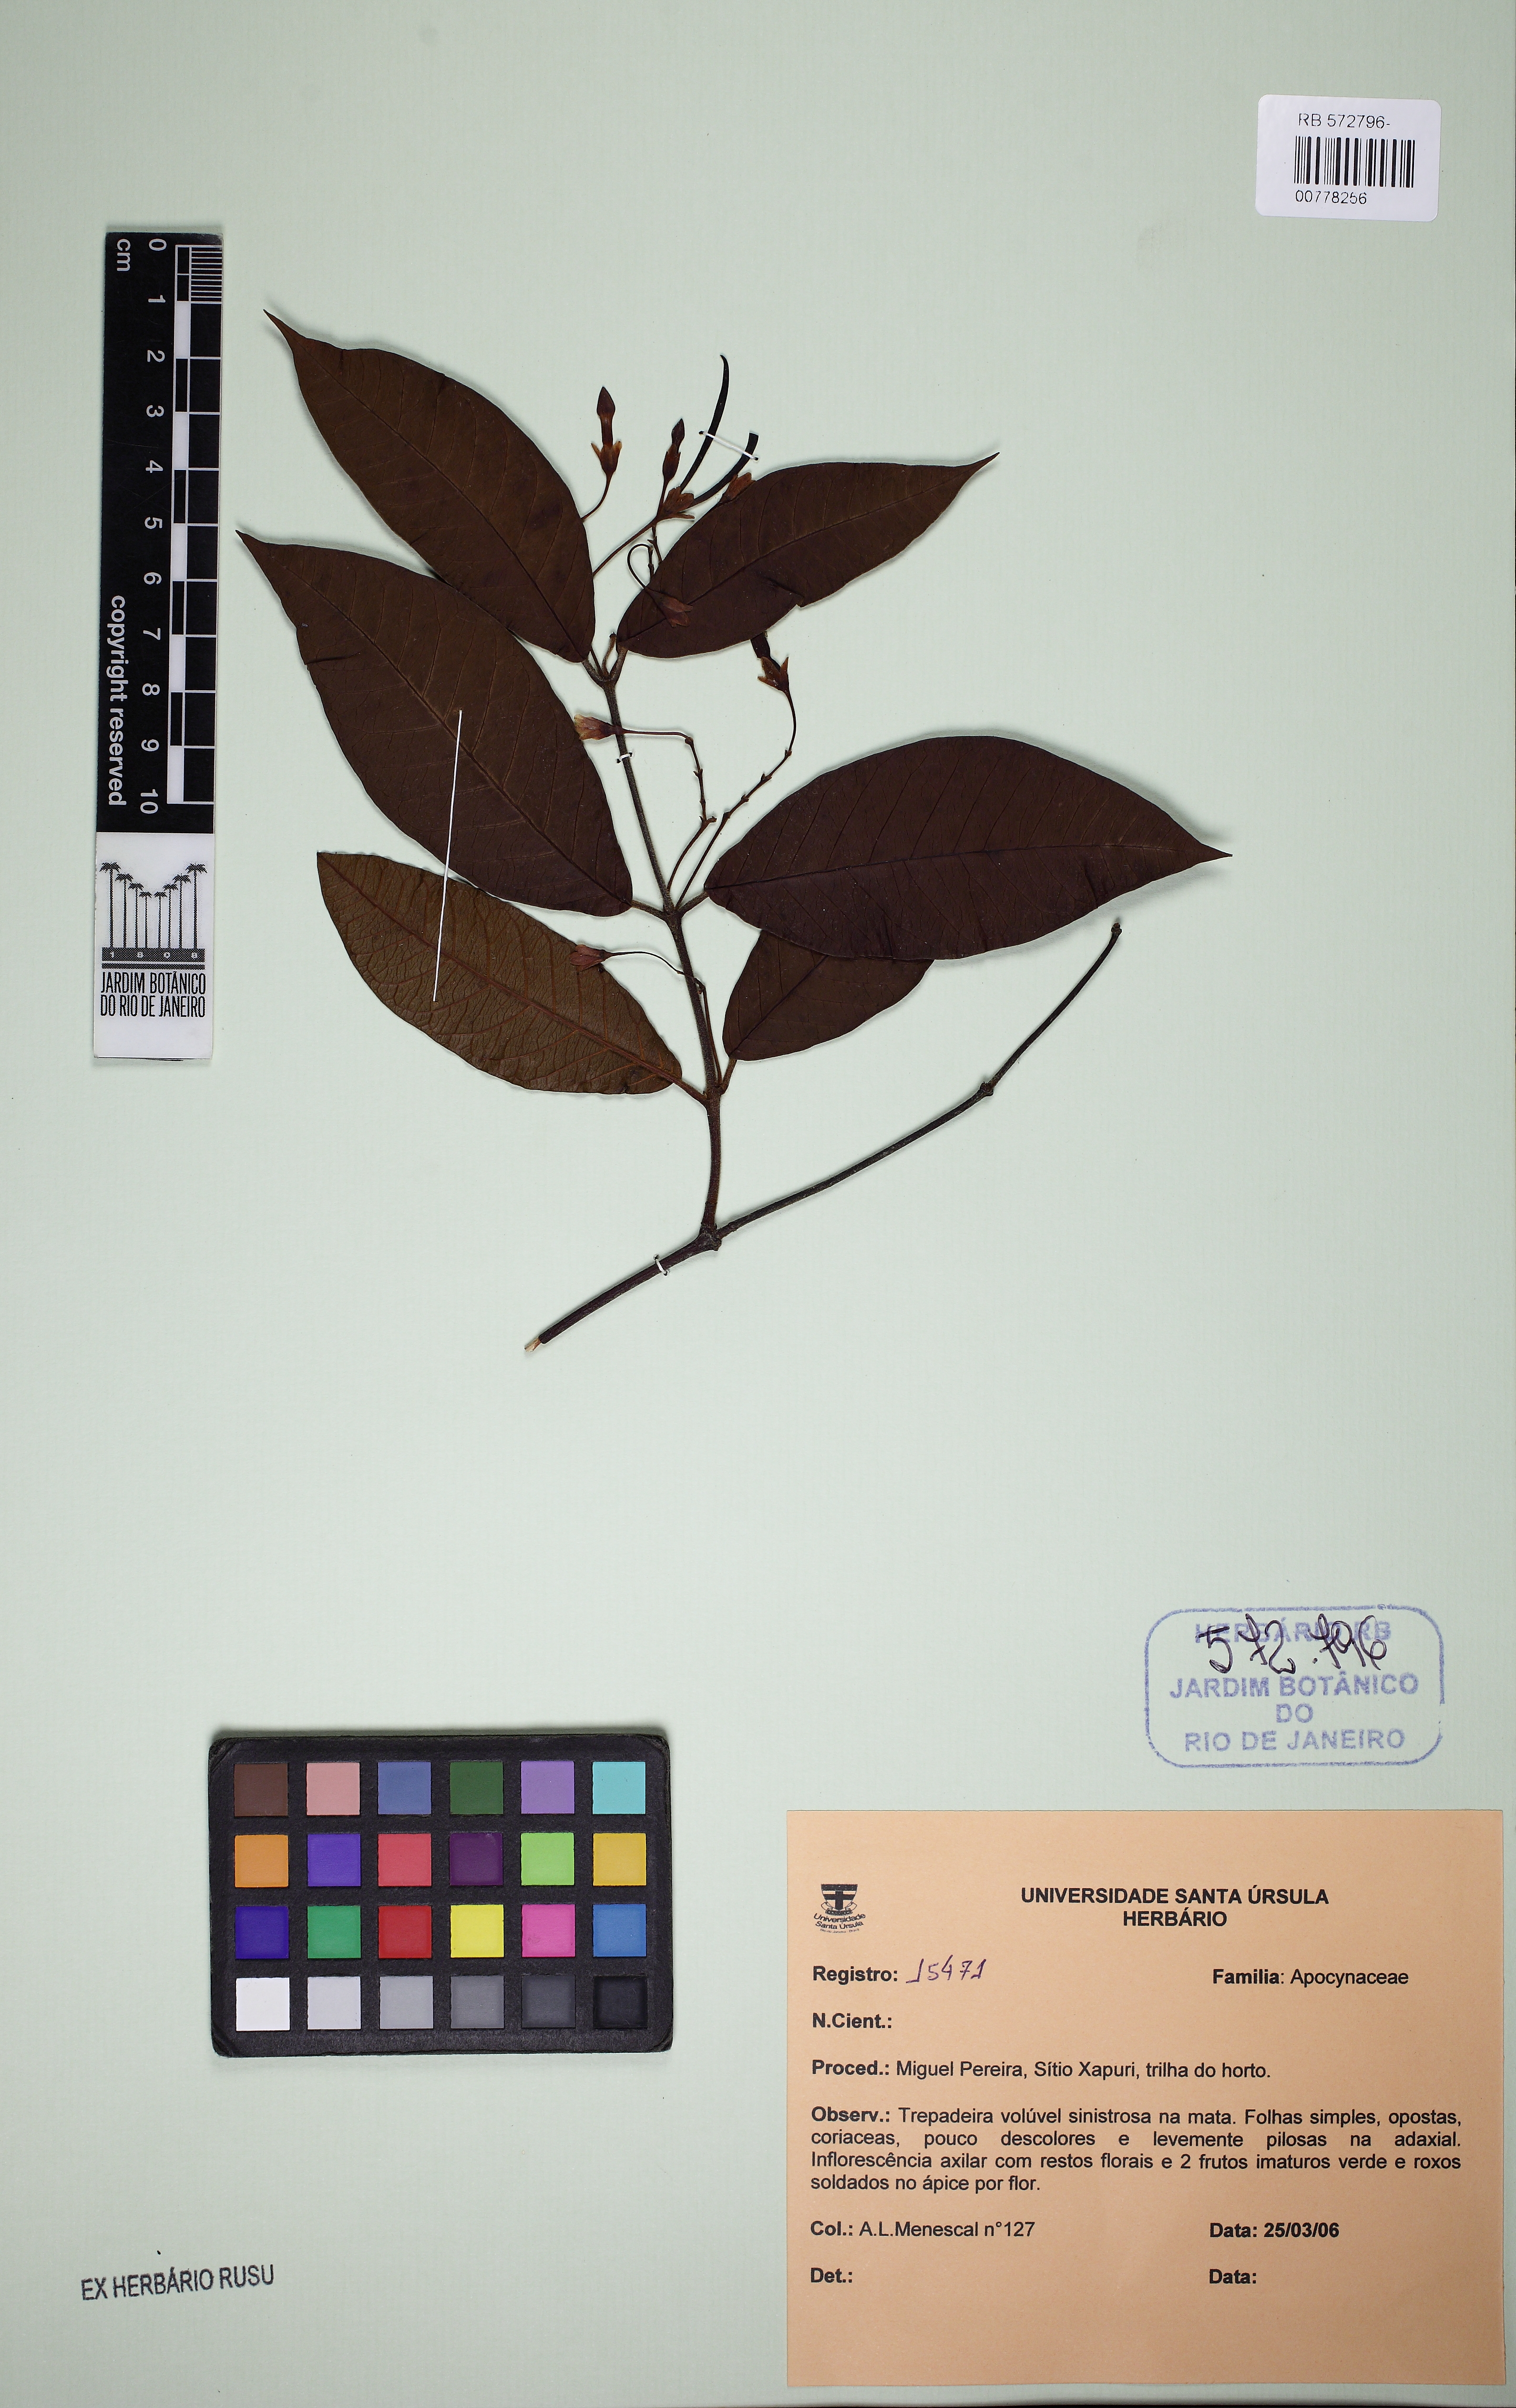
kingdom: Plantae
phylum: Tracheophyta
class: Magnoliopsida
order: Gentianales
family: Apocynaceae
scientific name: Apocynaceae
